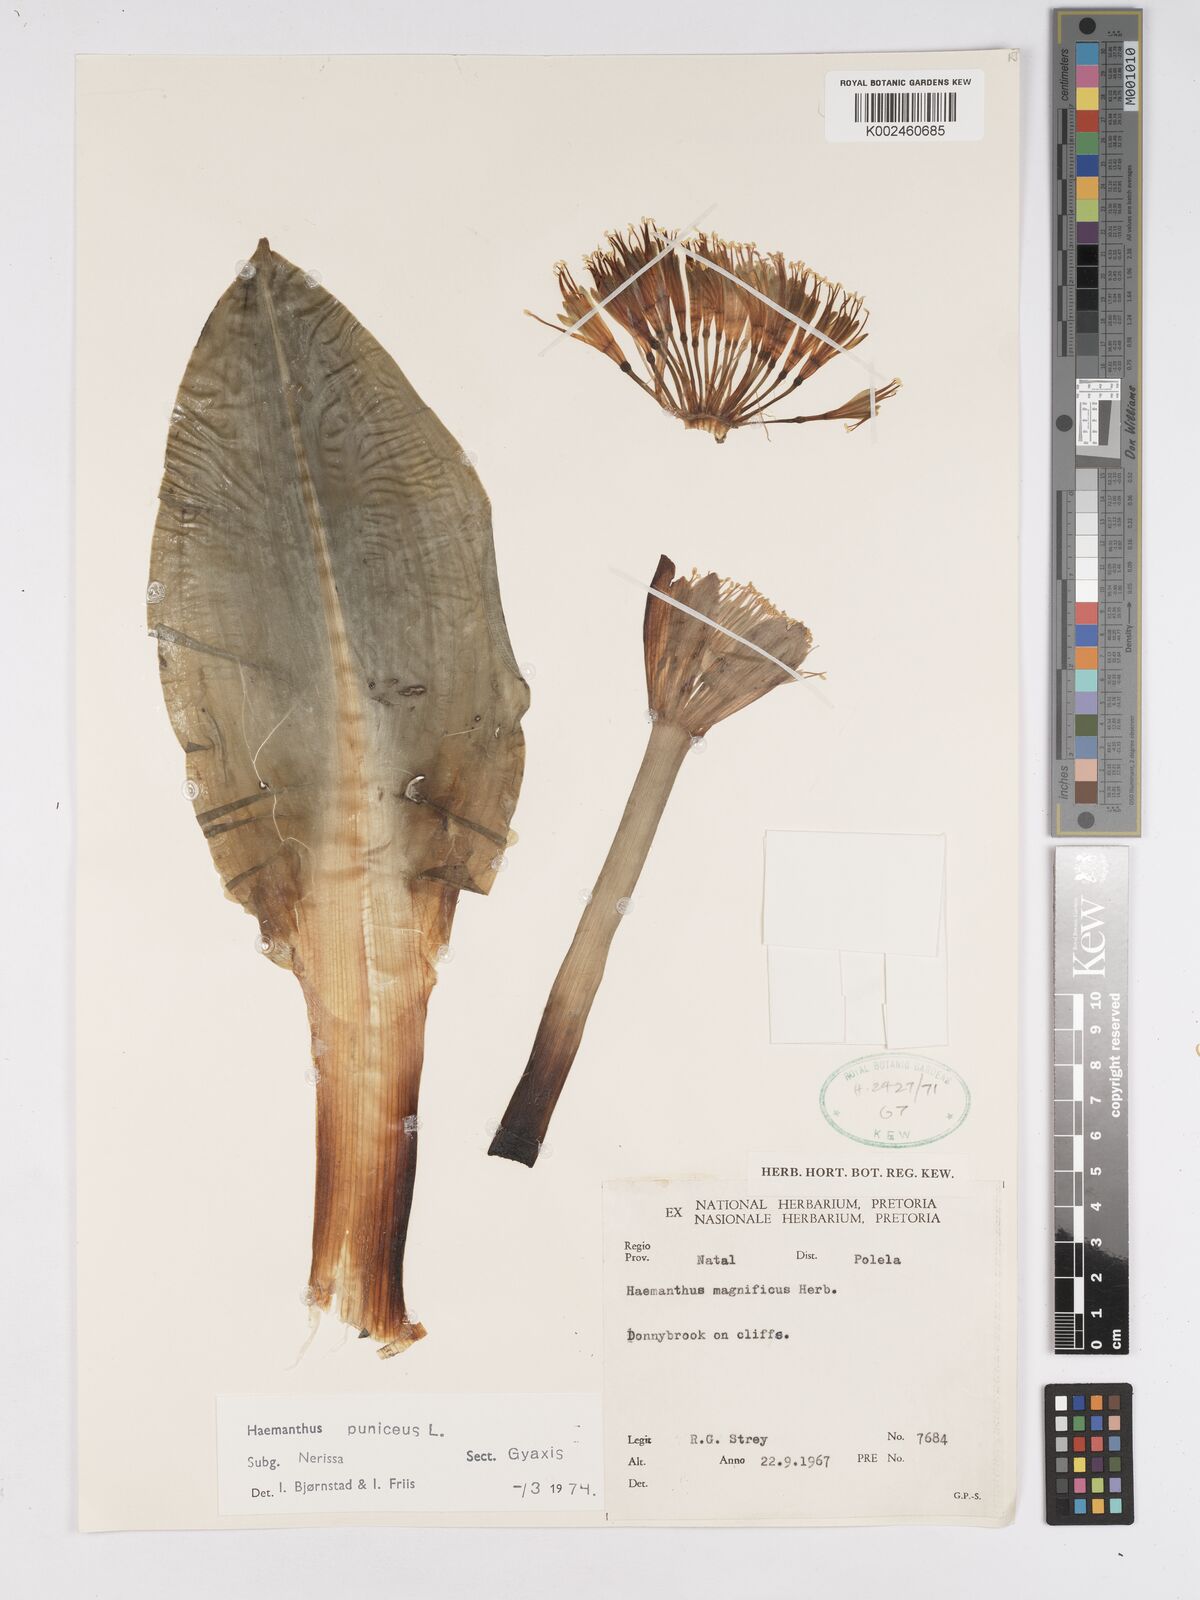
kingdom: Plantae
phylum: Tracheophyta
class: Liliopsida
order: Asparagales
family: Amaryllidaceae
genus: Scadoxus
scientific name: Scadoxus puniceus
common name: Royal-paintbrush
